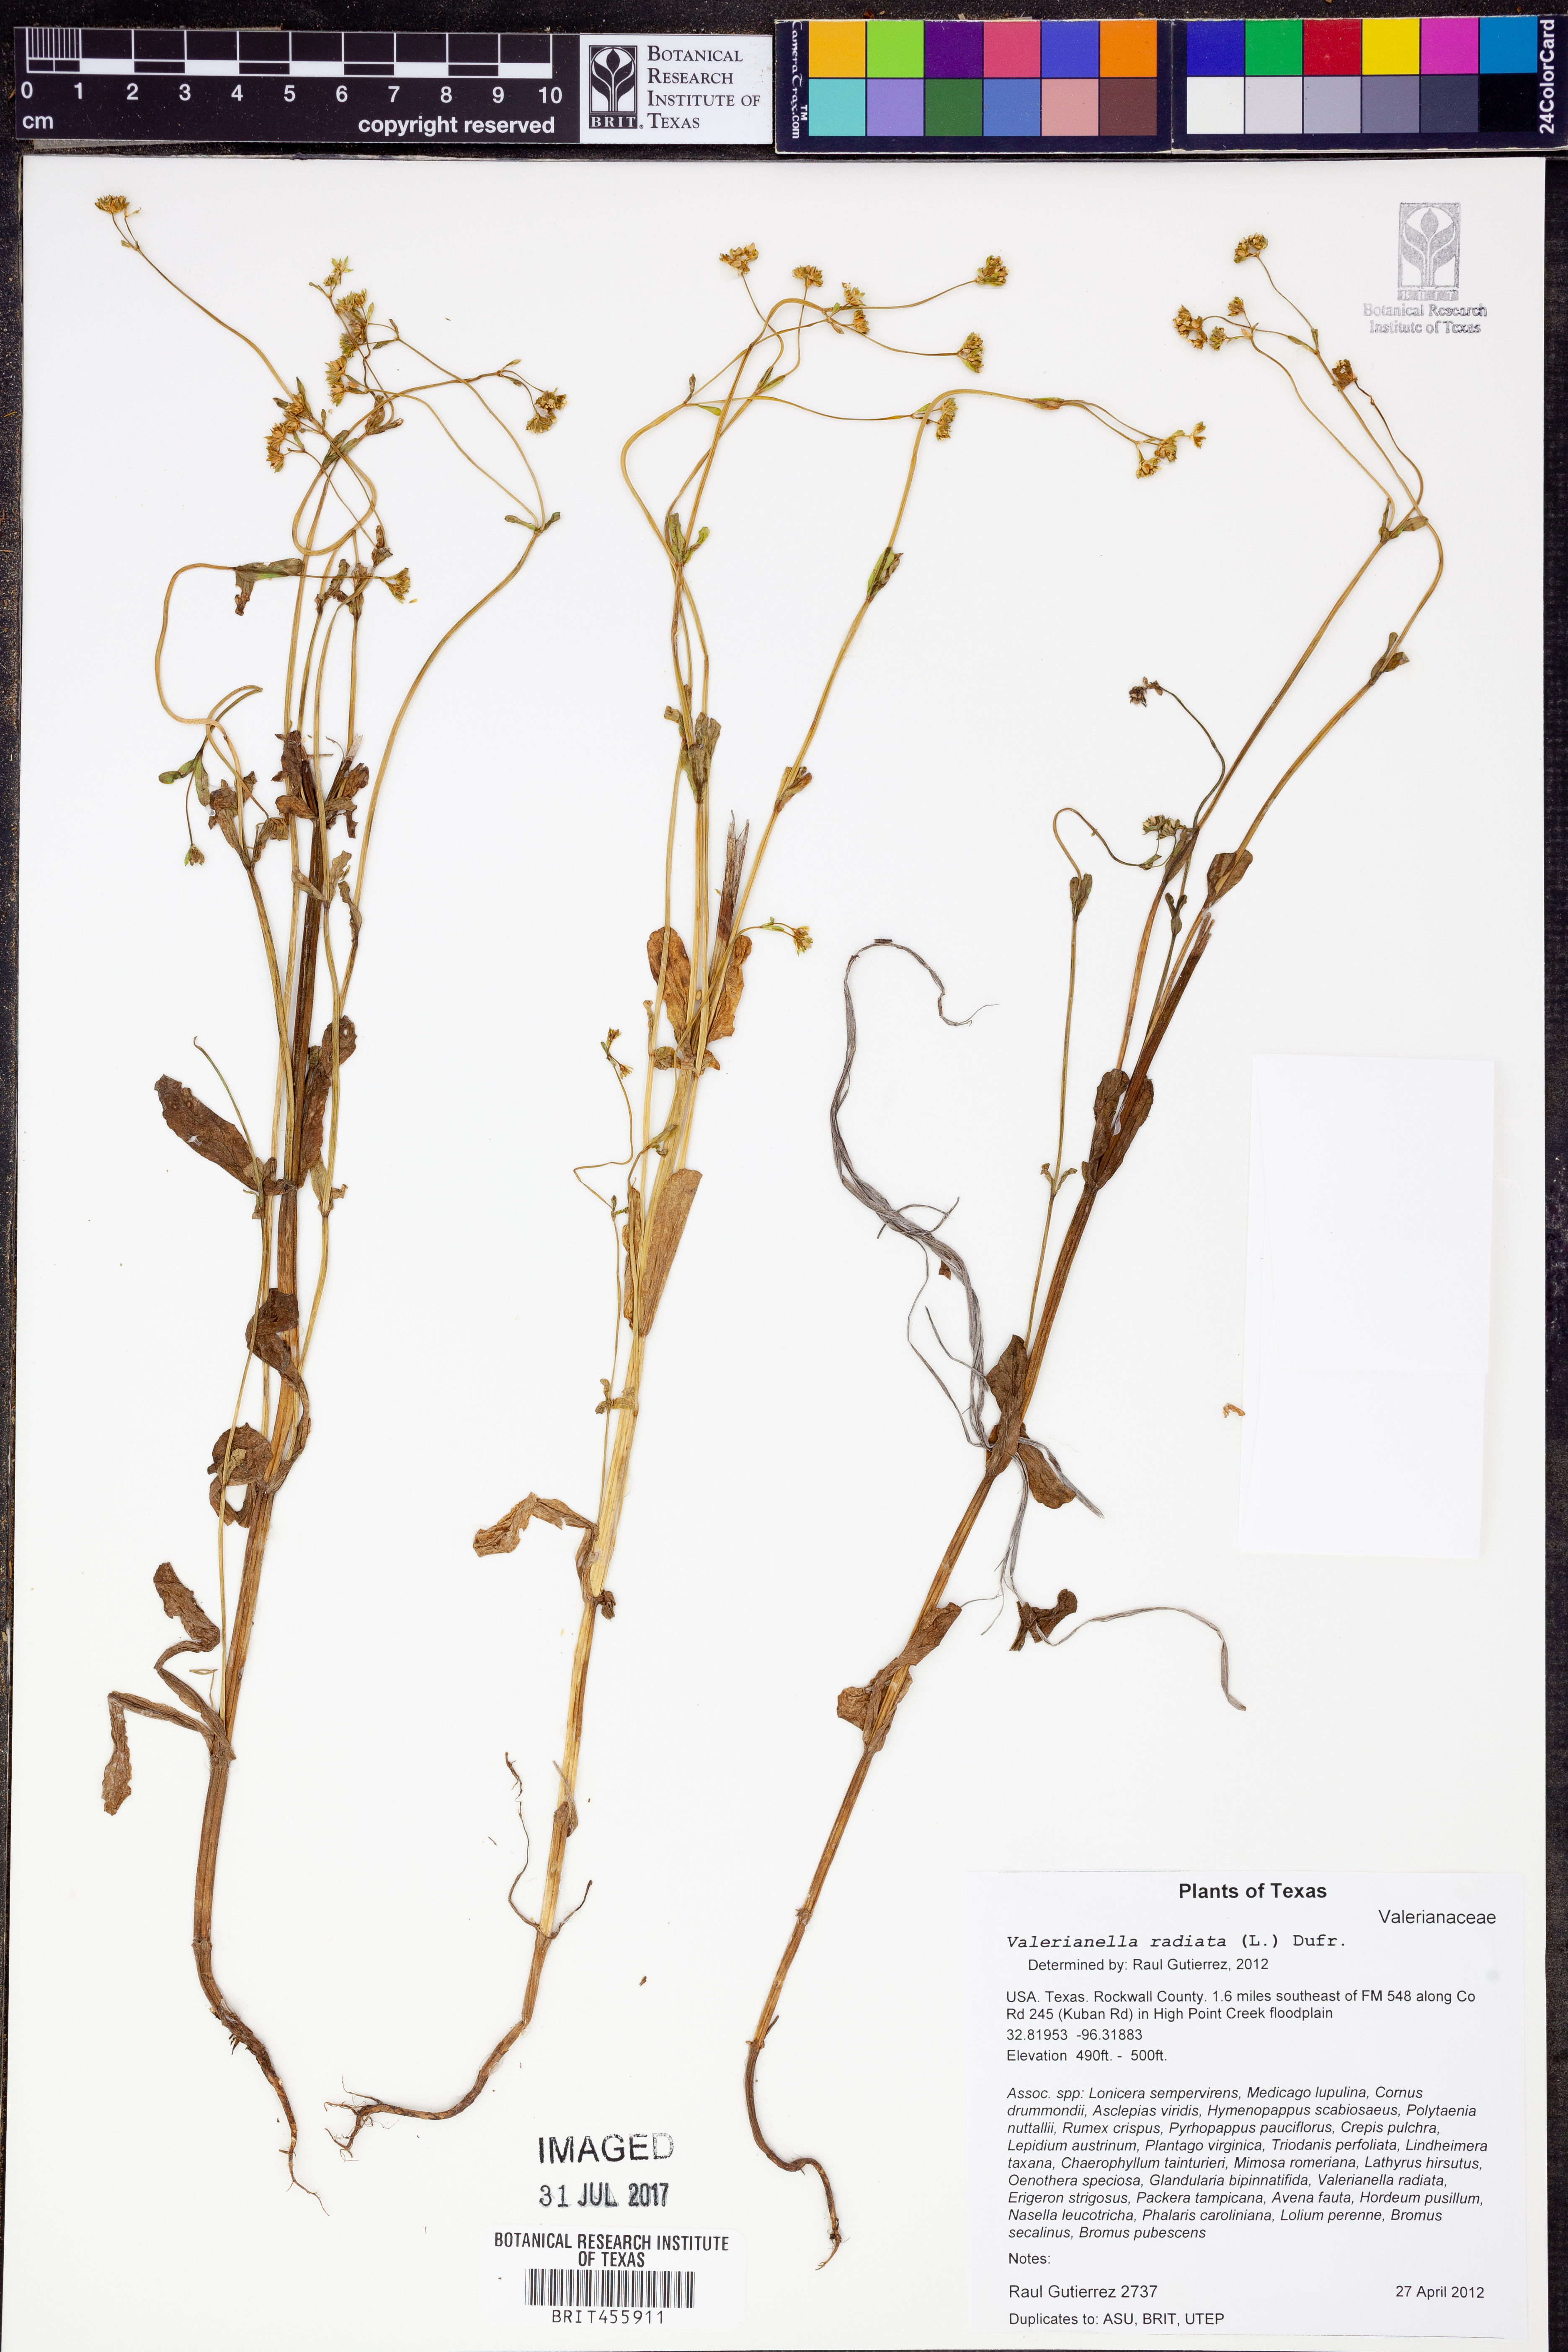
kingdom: Plantae
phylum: Tracheophyta
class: Magnoliopsida
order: Dipsacales
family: Caprifoliaceae
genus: Valerianella
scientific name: Valerianella radiata
